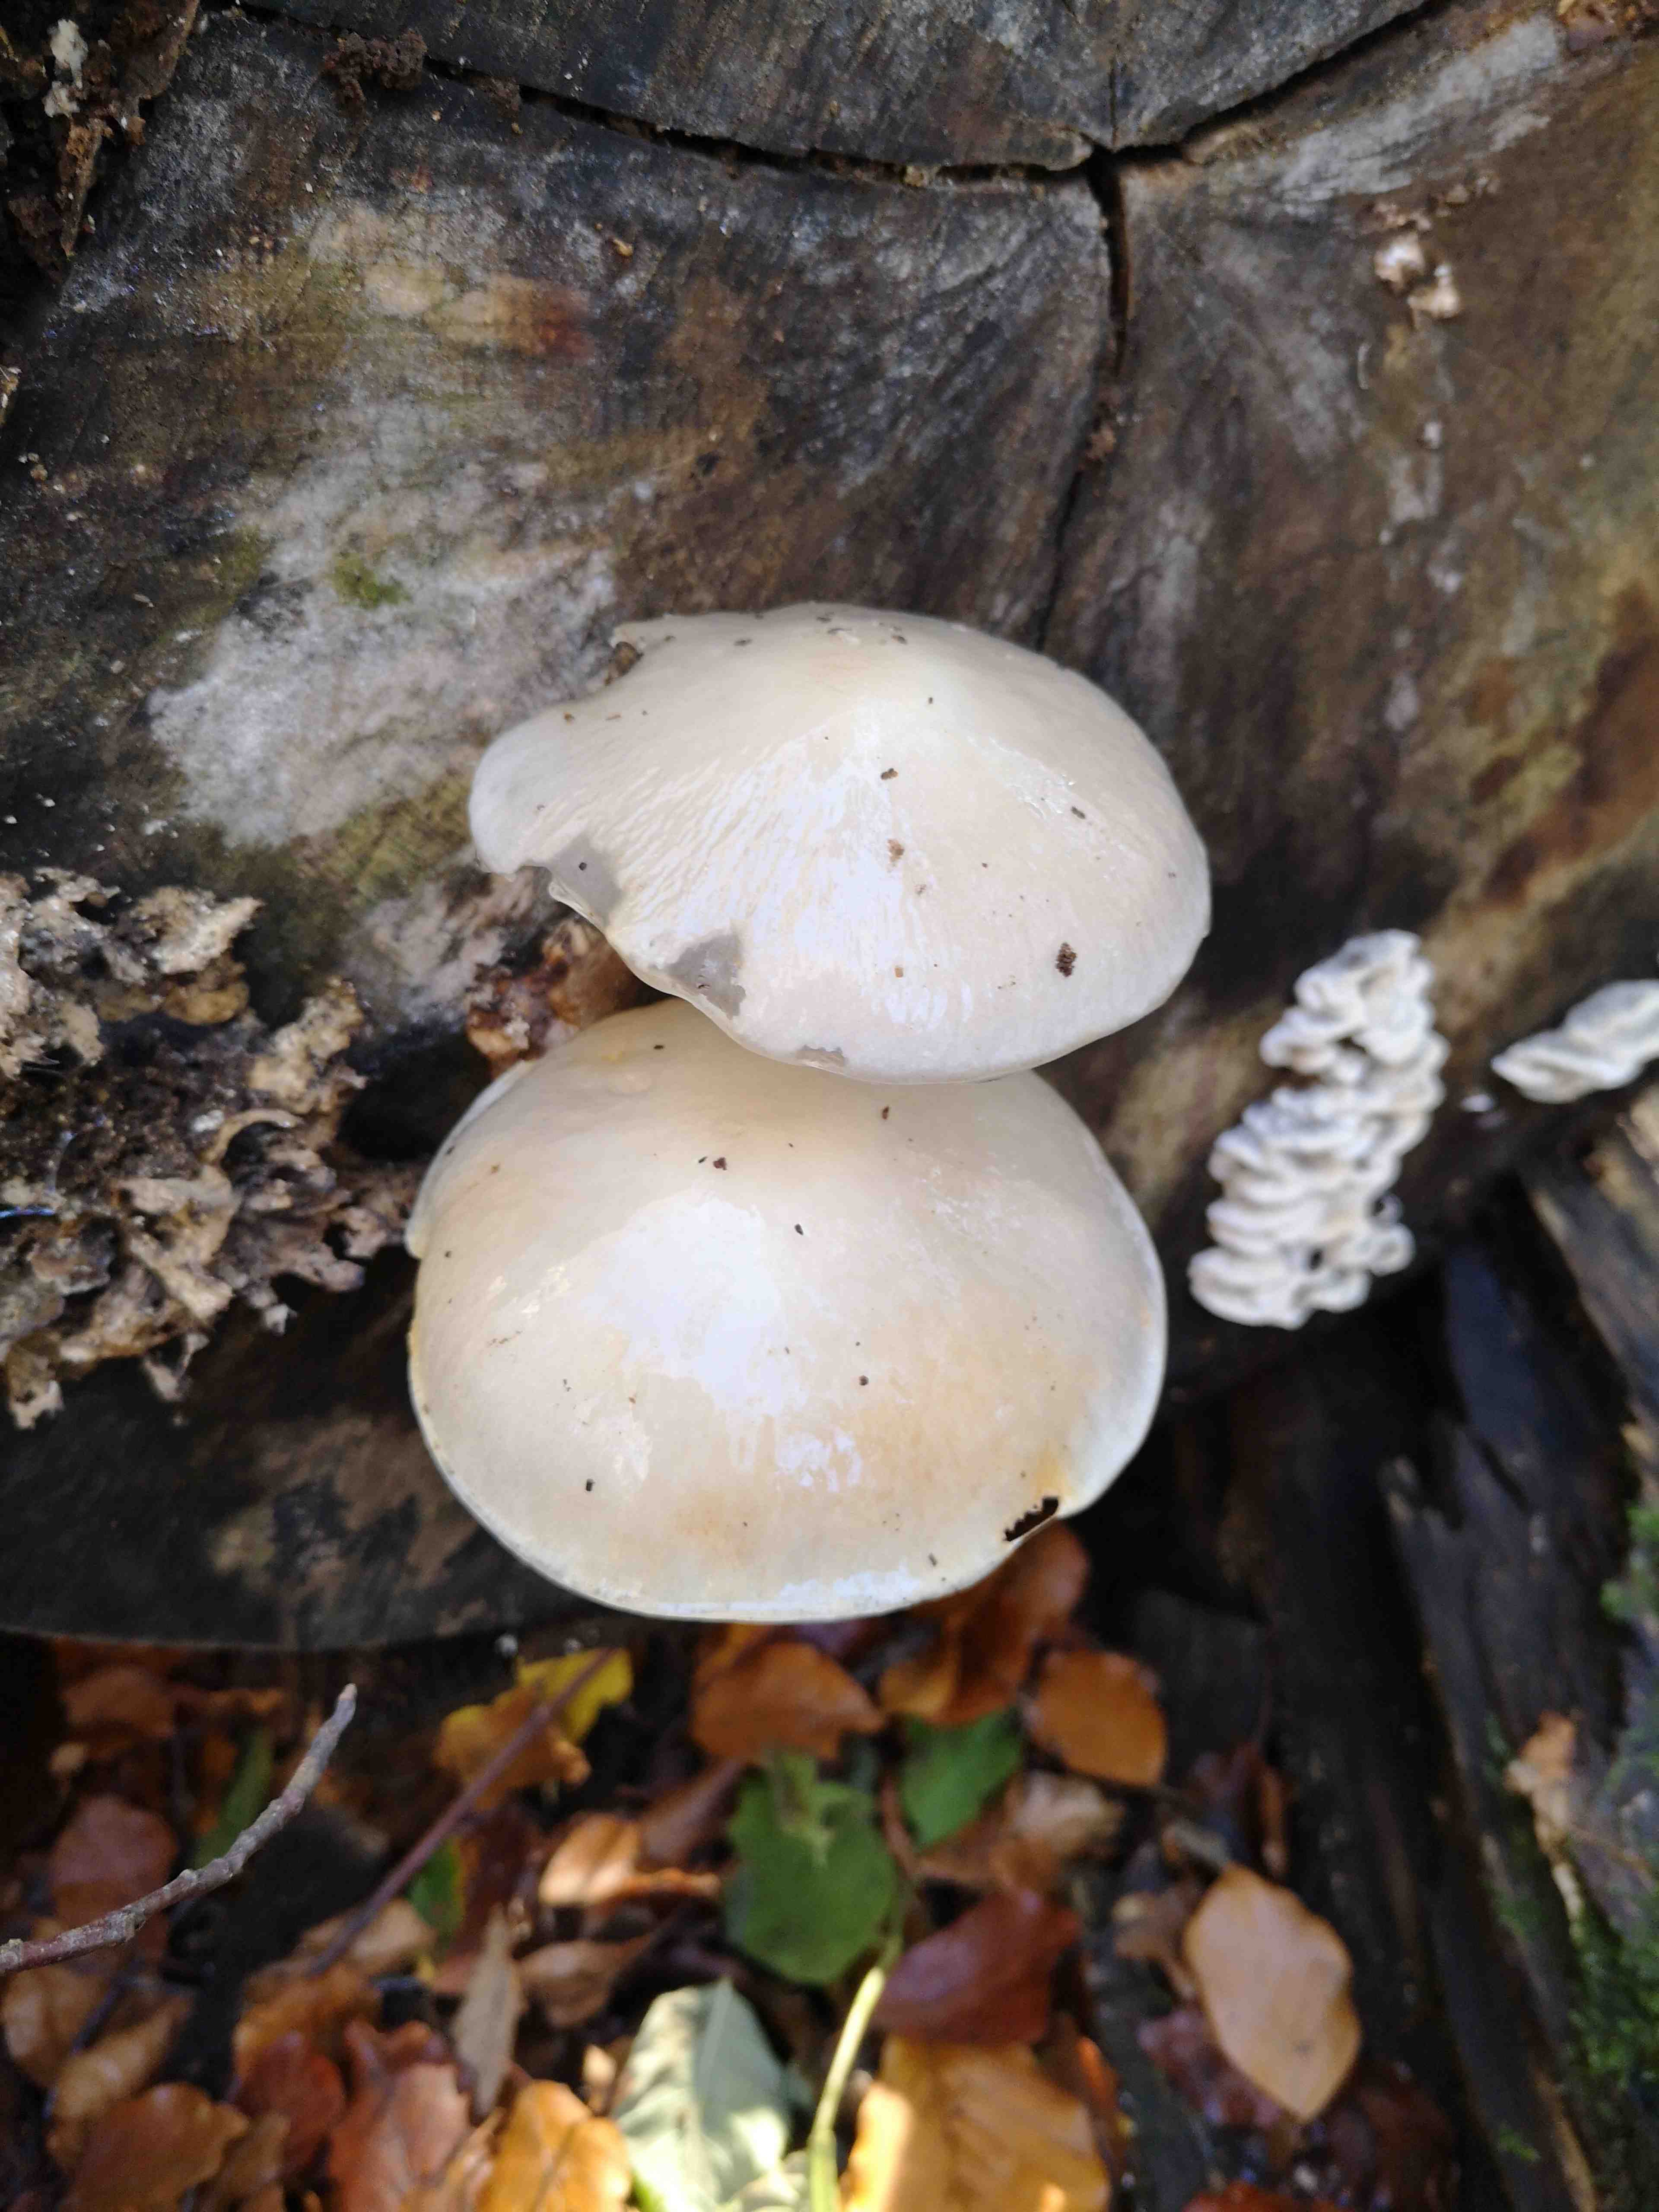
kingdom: Fungi
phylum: Basidiomycota
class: Agaricomycetes
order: Agaricales
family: Physalacriaceae
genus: Mucidula
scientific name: Mucidula mucida
